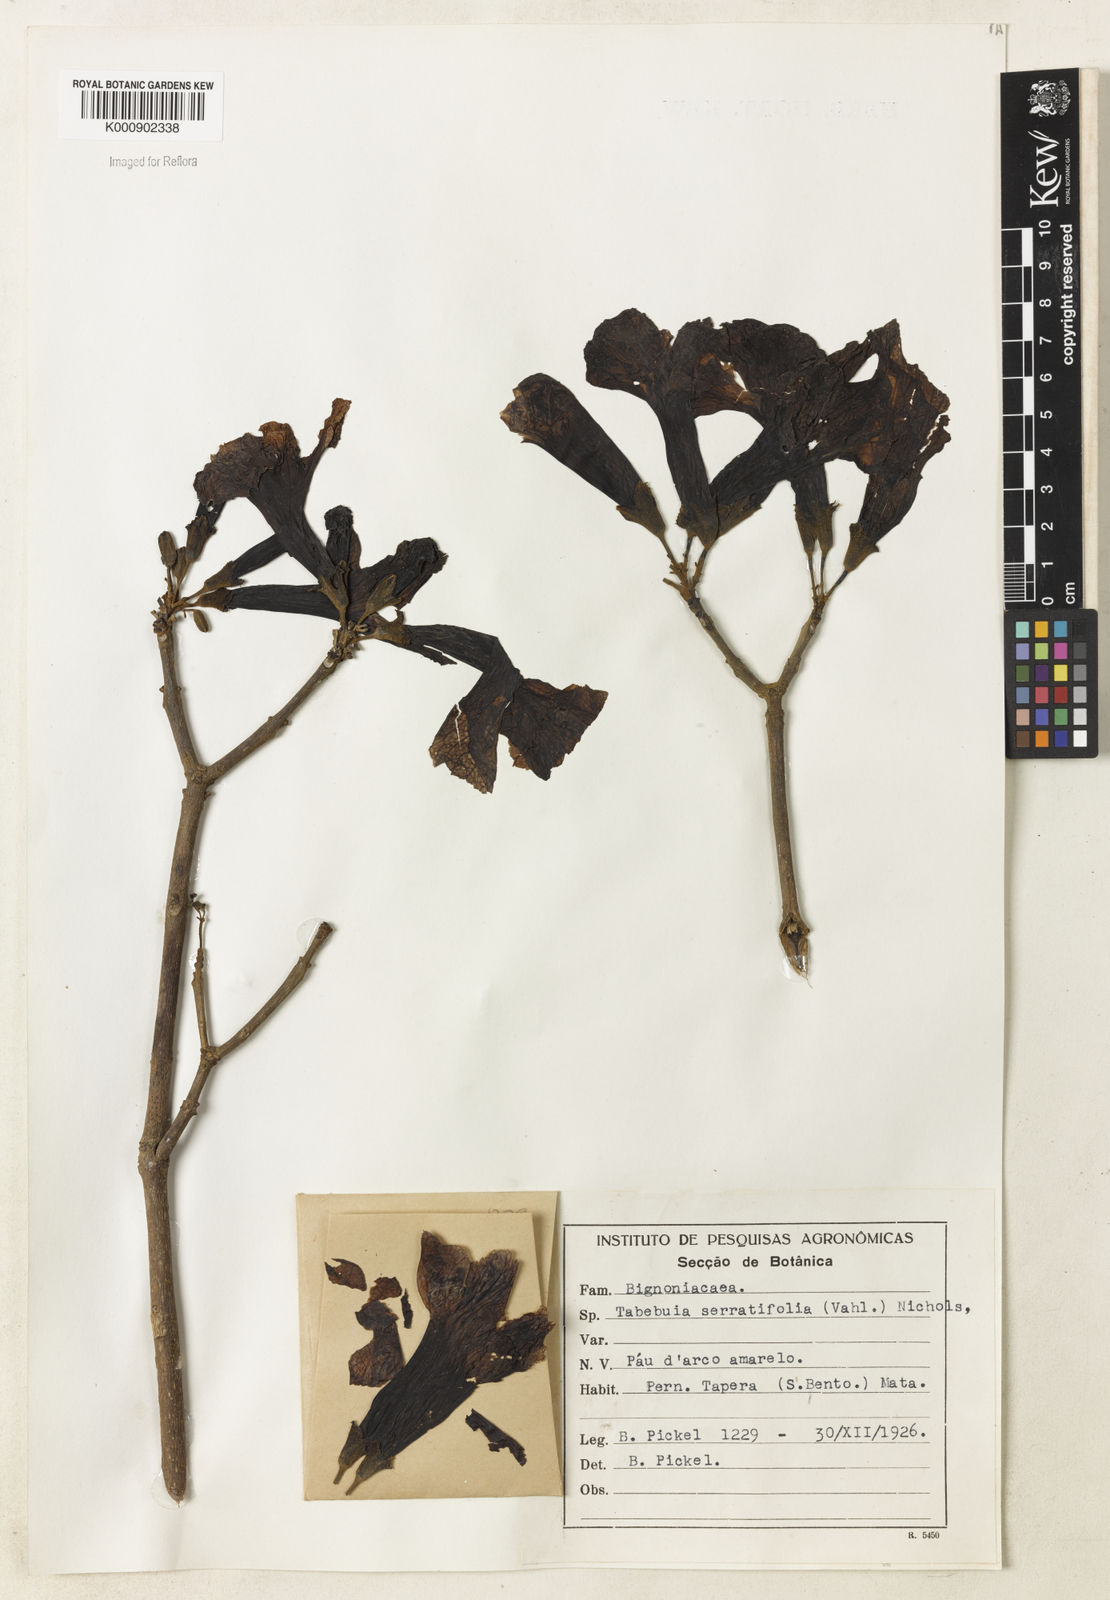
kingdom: Plantae
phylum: Tracheophyta
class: Magnoliopsida
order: Lamiales
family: Bignoniaceae
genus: Handroanthus
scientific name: Handroanthus serratifolius
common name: Yellow ipe
